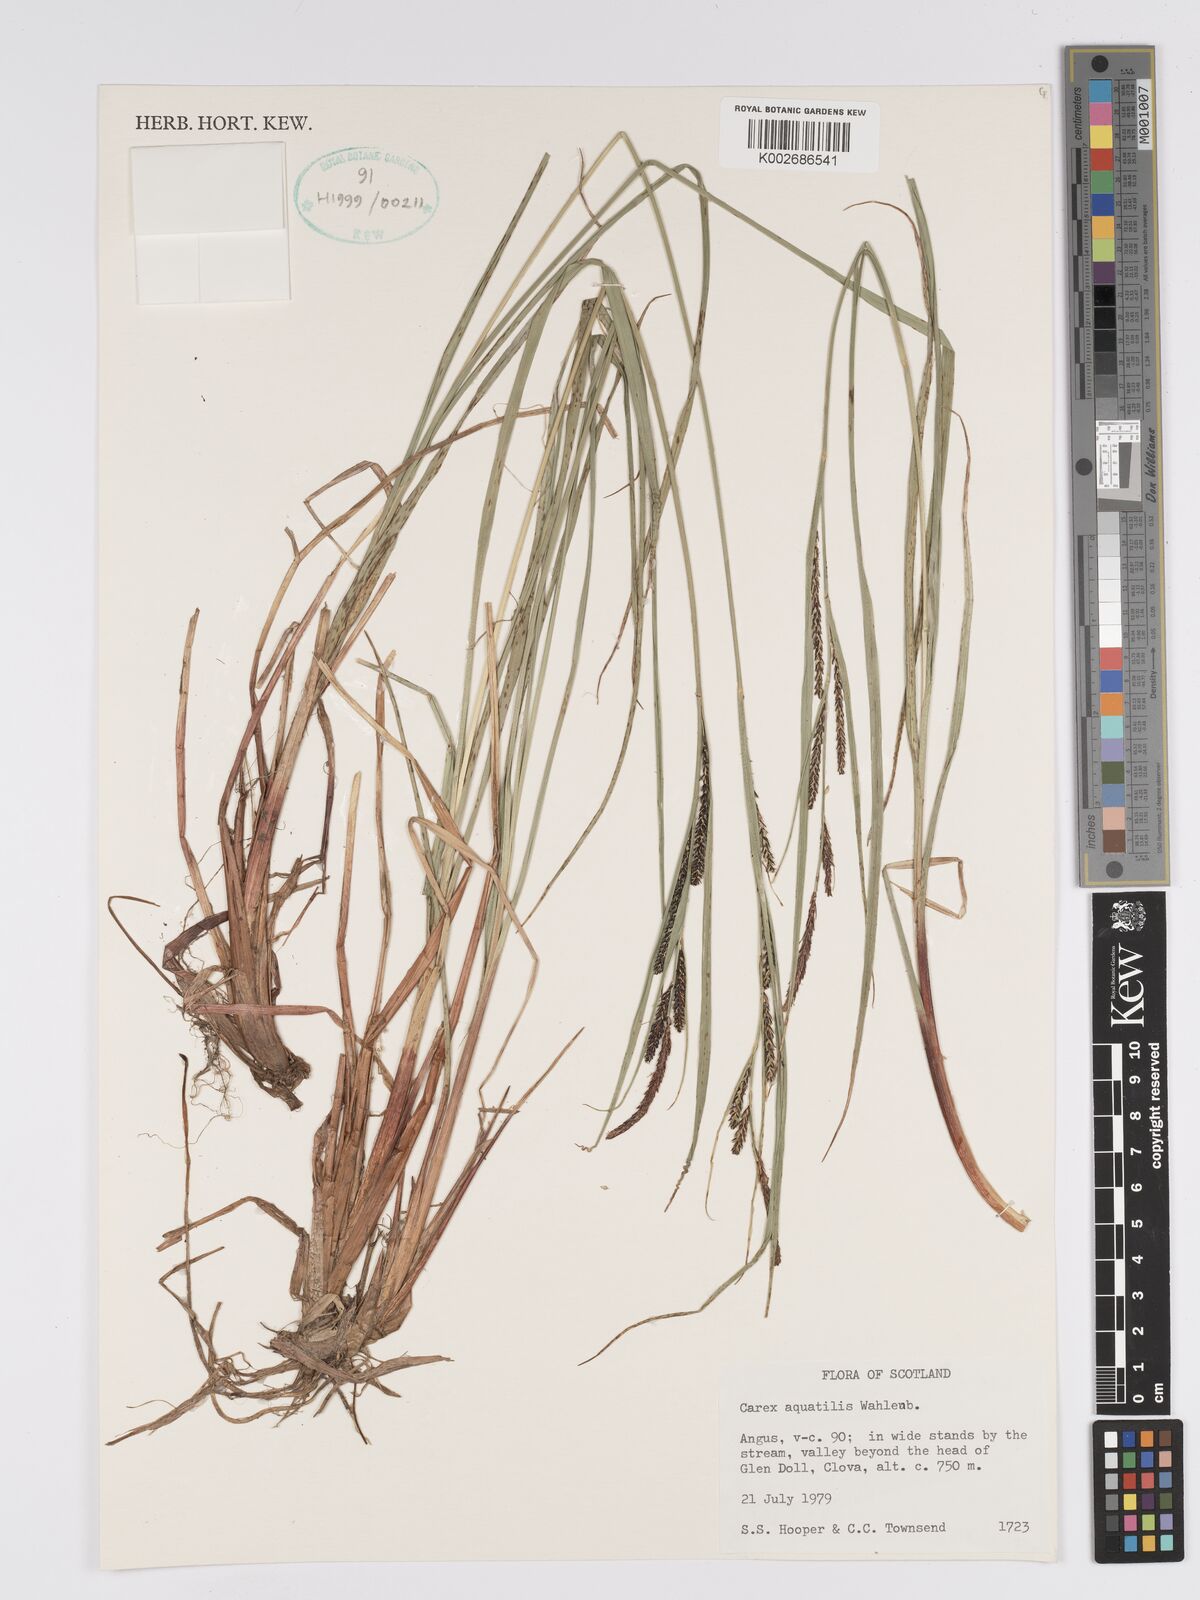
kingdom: Plantae
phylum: Tracheophyta
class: Liliopsida
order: Poales
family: Cyperaceae
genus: Carex
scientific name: Carex aquatilis
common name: Water sedge
